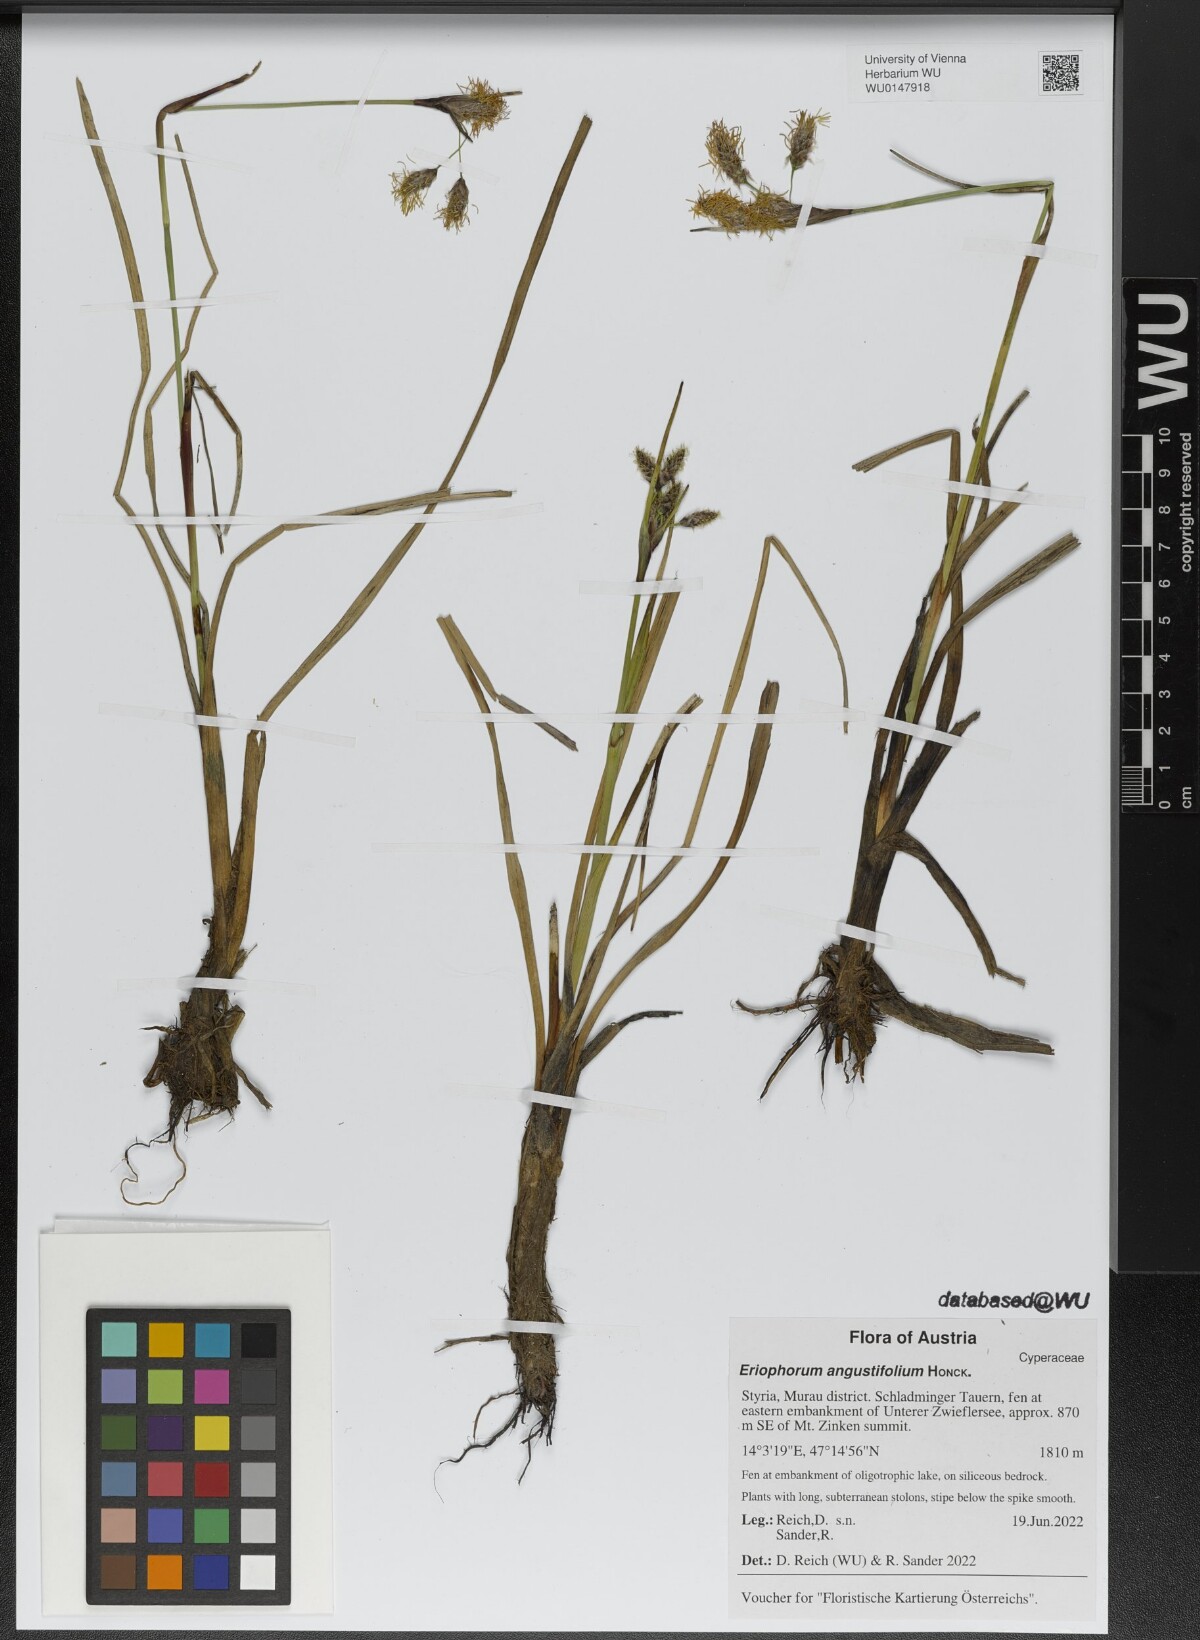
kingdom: Plantae
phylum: Tracheophyta
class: Liliopsida
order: Poales
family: Cyperaceae
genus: Eriophorum
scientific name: Eriophorum angustifolium
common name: Common cottongrass
